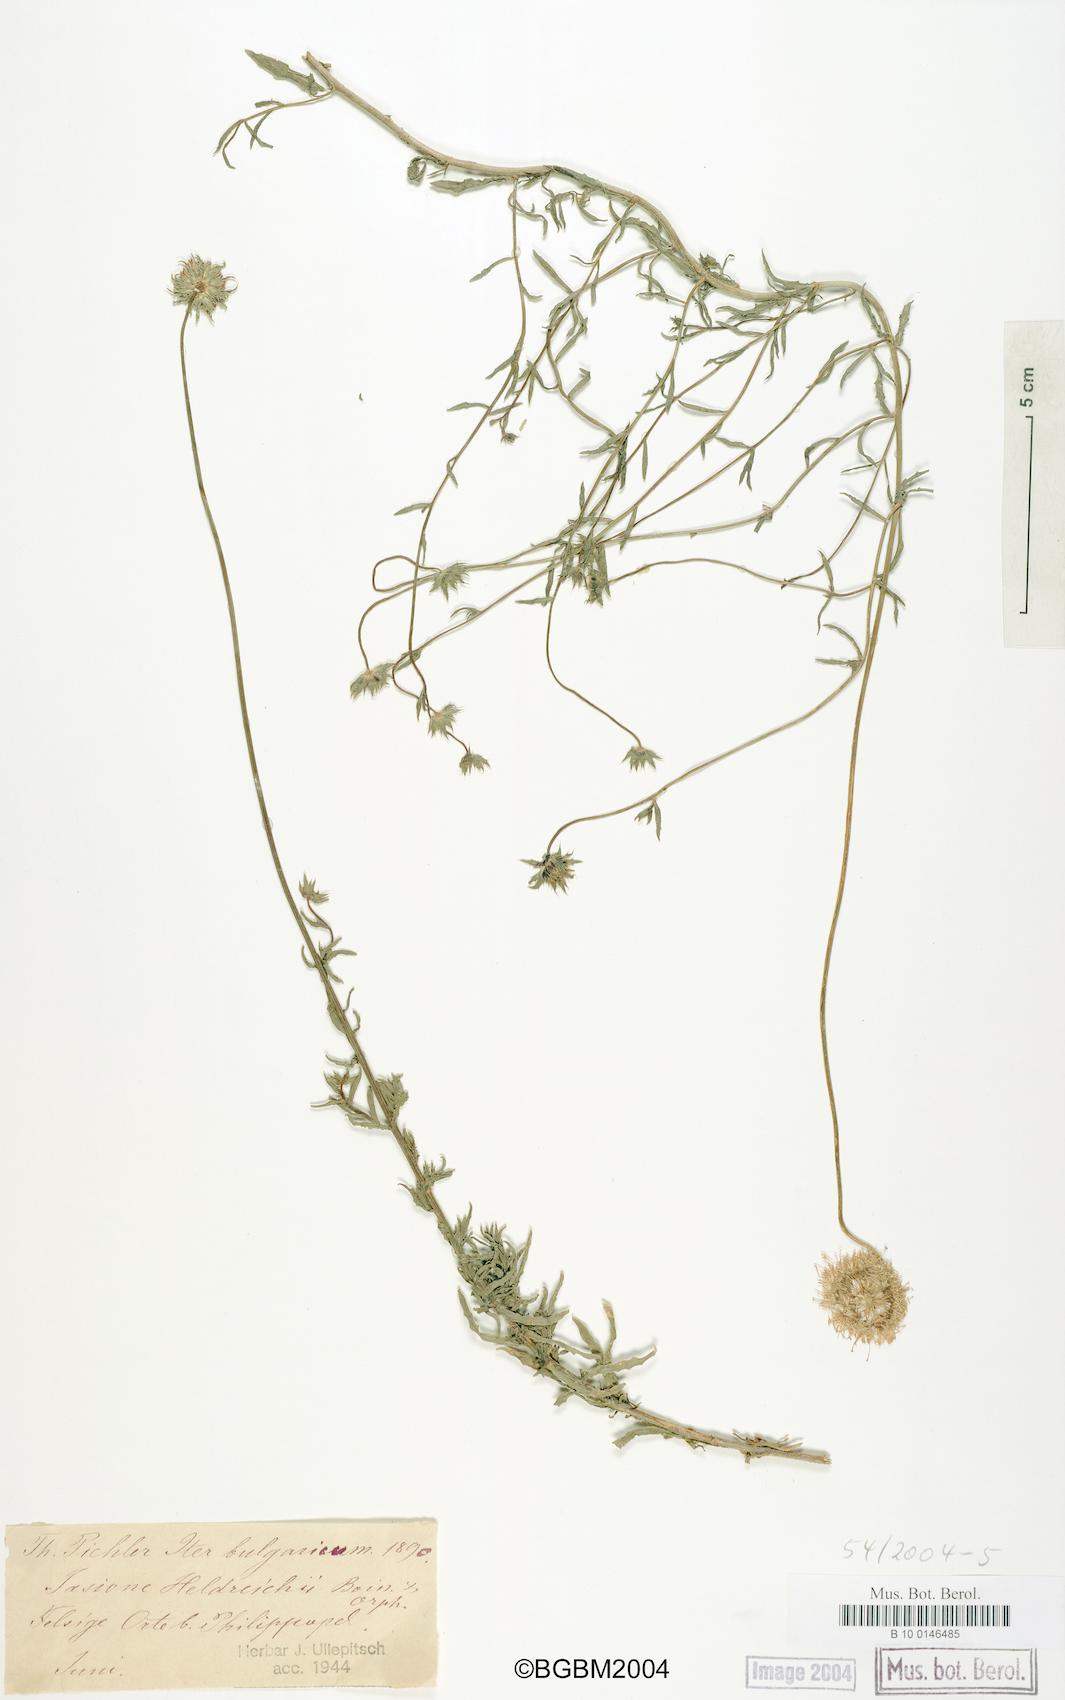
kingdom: Plantae
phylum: Tracheophyta
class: Magnoliopsida
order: Asterales
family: Campanulaceae
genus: Jasione
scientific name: Jasione heldreichii
